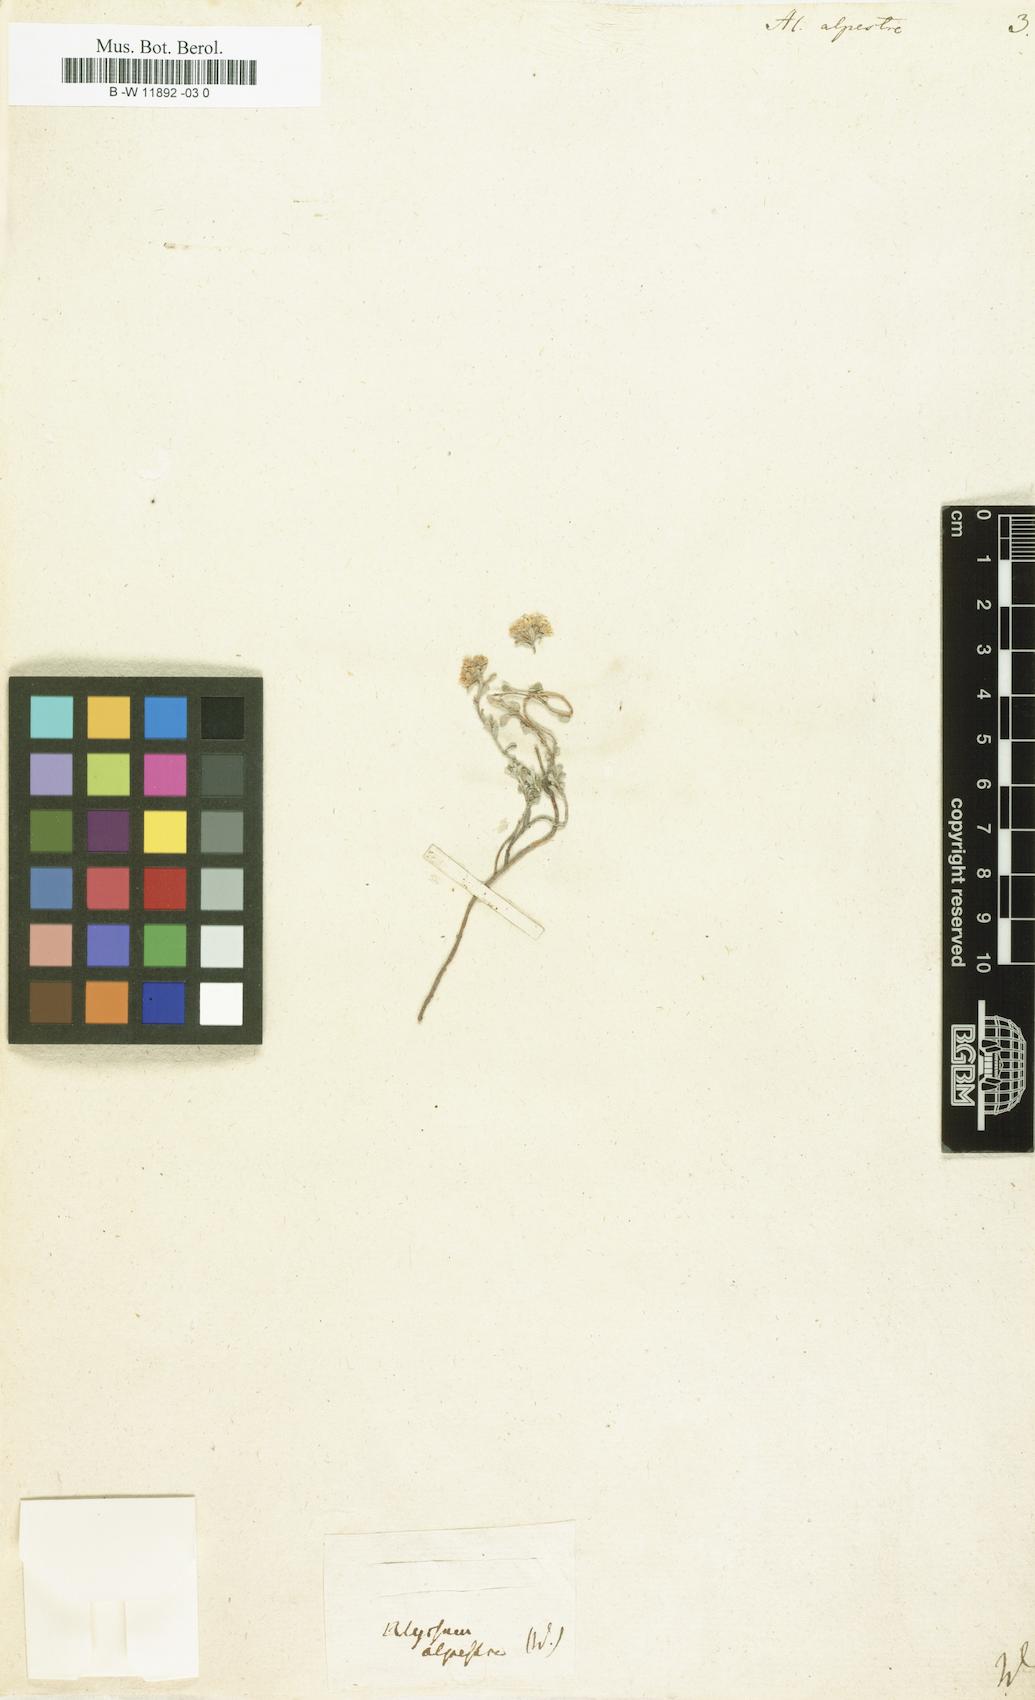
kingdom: Plantae
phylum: Tracheophyta
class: Magnoliopsida
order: Brassicales
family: Brassicaceae
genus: Odontarrhena
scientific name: Odontarrhena alpestris
